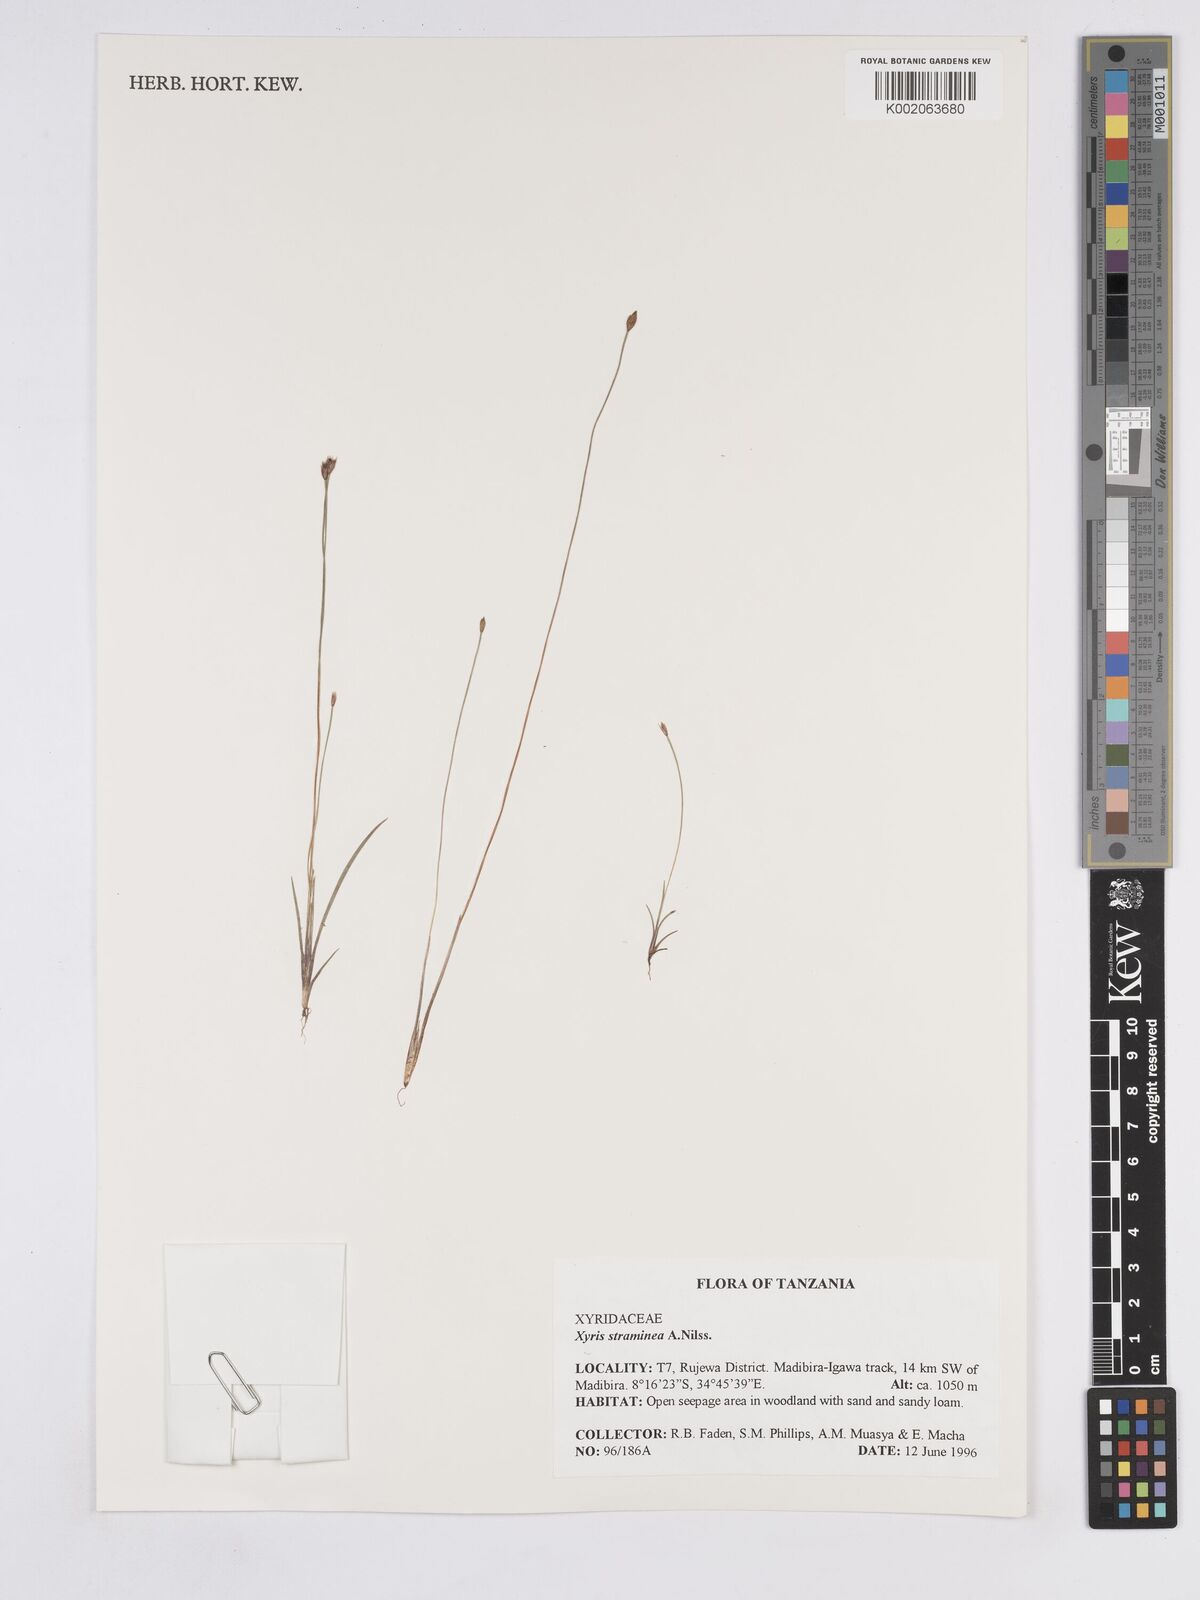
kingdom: Plantae
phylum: Tracheophyta
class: Liliopsida
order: Poales
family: Xyridaceae
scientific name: Xyridaceae
